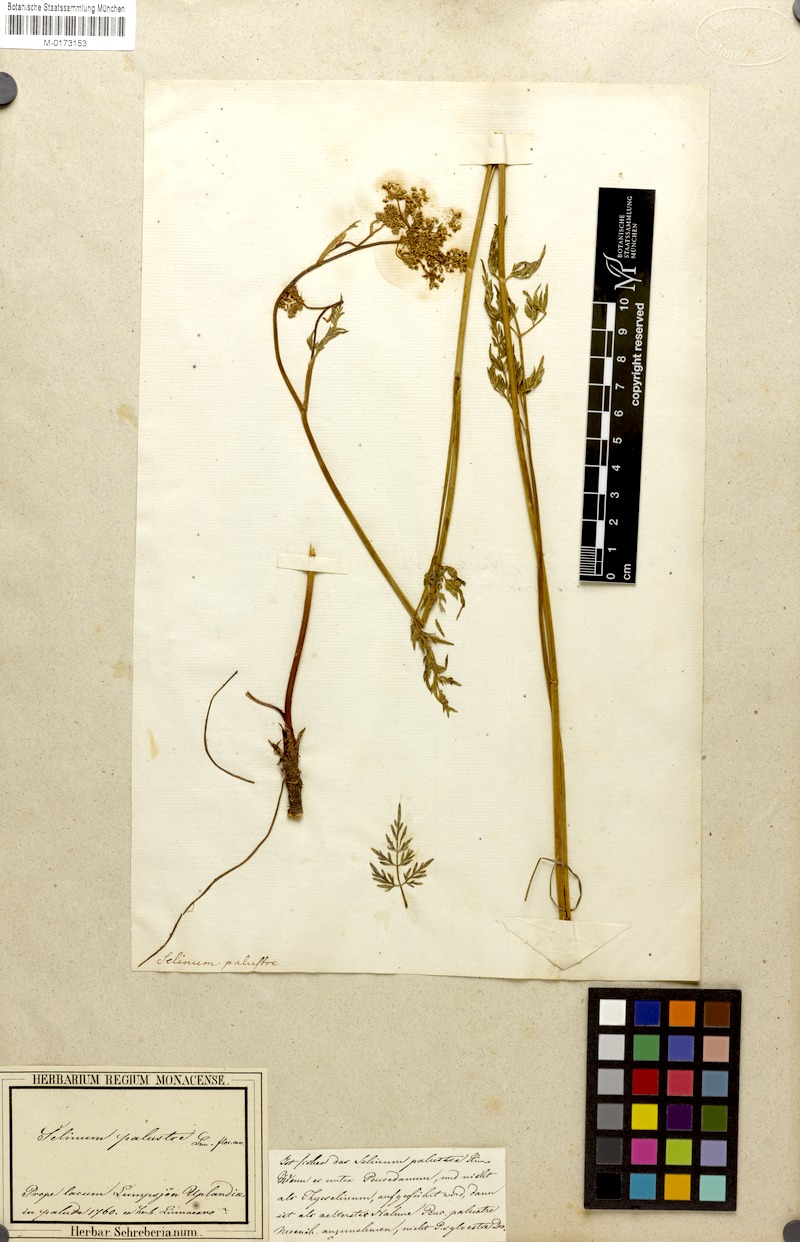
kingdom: Plantae
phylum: Tracheophyta
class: Magnoliopsida
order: Apiales
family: Apiaceae
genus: Thysselinum
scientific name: Thysselinum palustre
